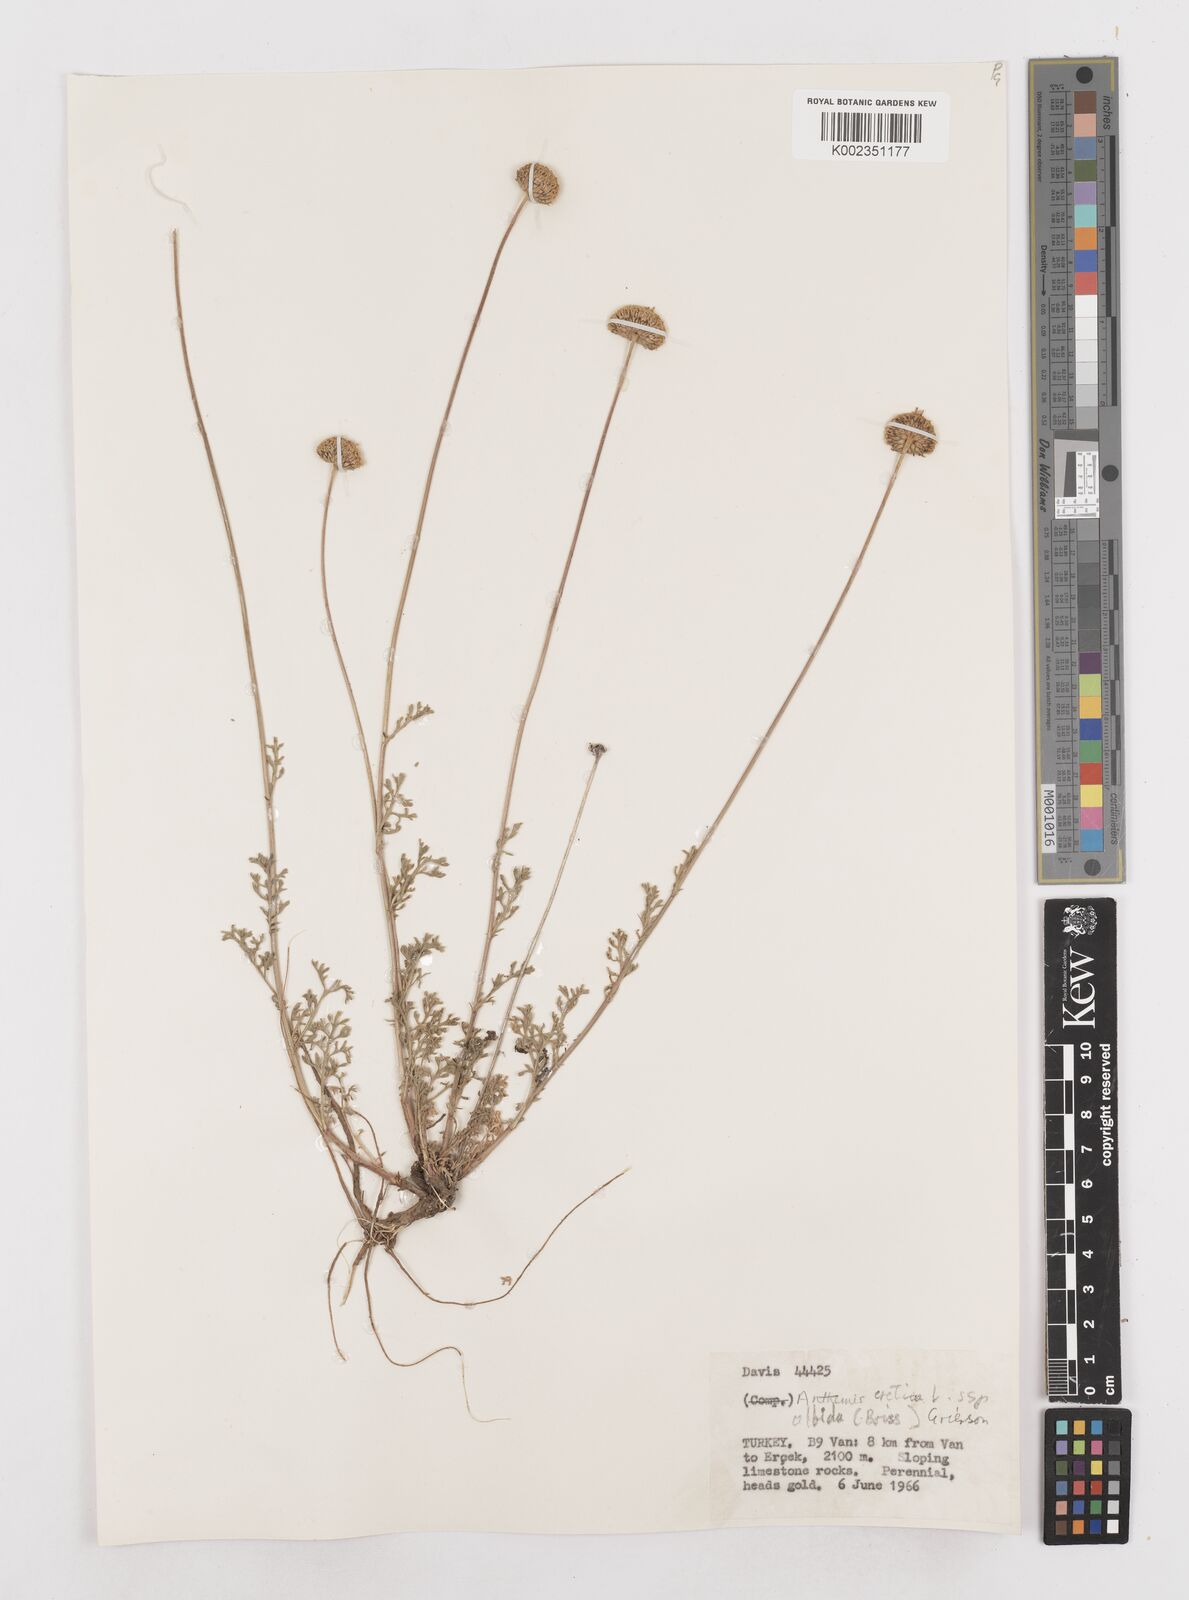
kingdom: Plantae
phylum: Tracheophyta
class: Magnoliopsida
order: Asterales
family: Asteraceae
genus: Anthemis
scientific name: Anthemis cretica
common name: Mountain dog-daisy
